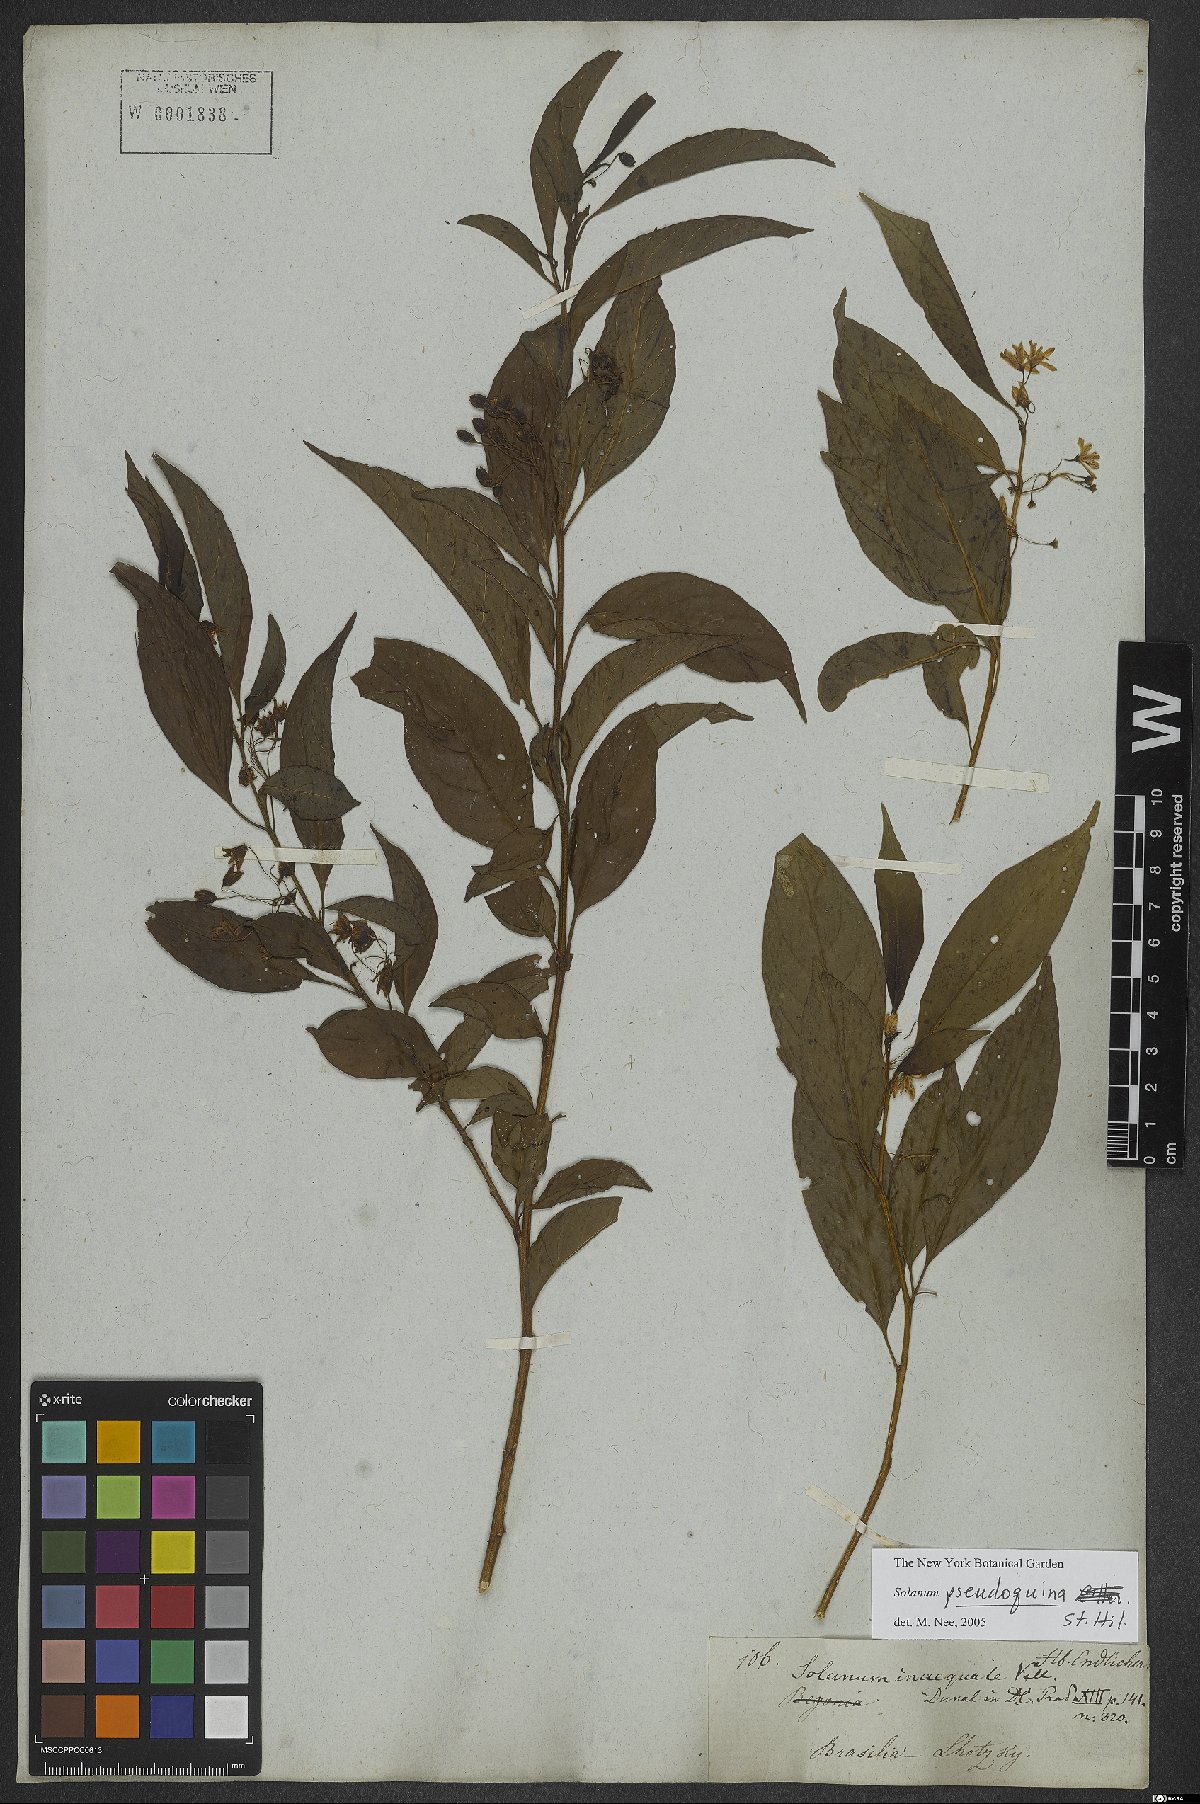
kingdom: Plantae
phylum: Tracheophyta
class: Magnoliopsida
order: Solanales
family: Solanaceae
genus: Solanum
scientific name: Solanum pseudoquina
